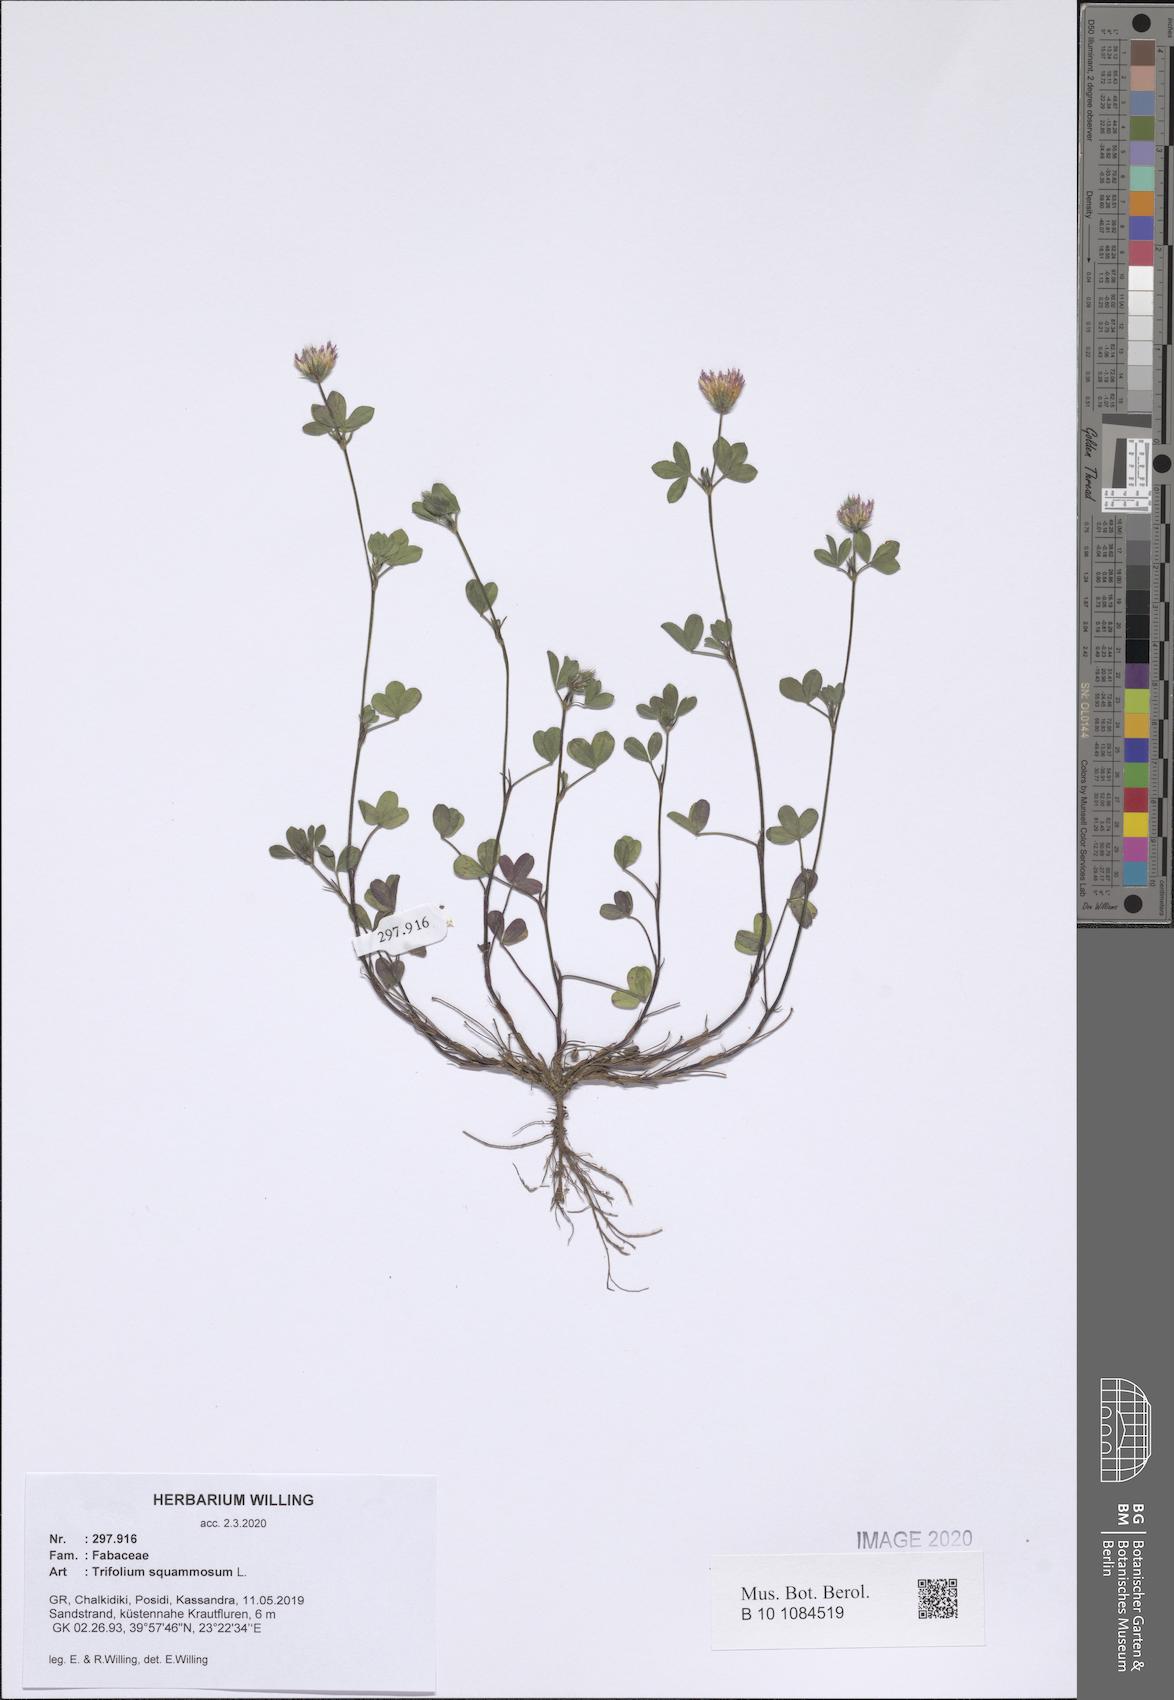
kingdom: Plantae
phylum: Tracheophyta
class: Magnoliopsida
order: Fabales
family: Fabaceae
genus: Trifolium
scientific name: Trifolium squamosum
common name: Sea clover
